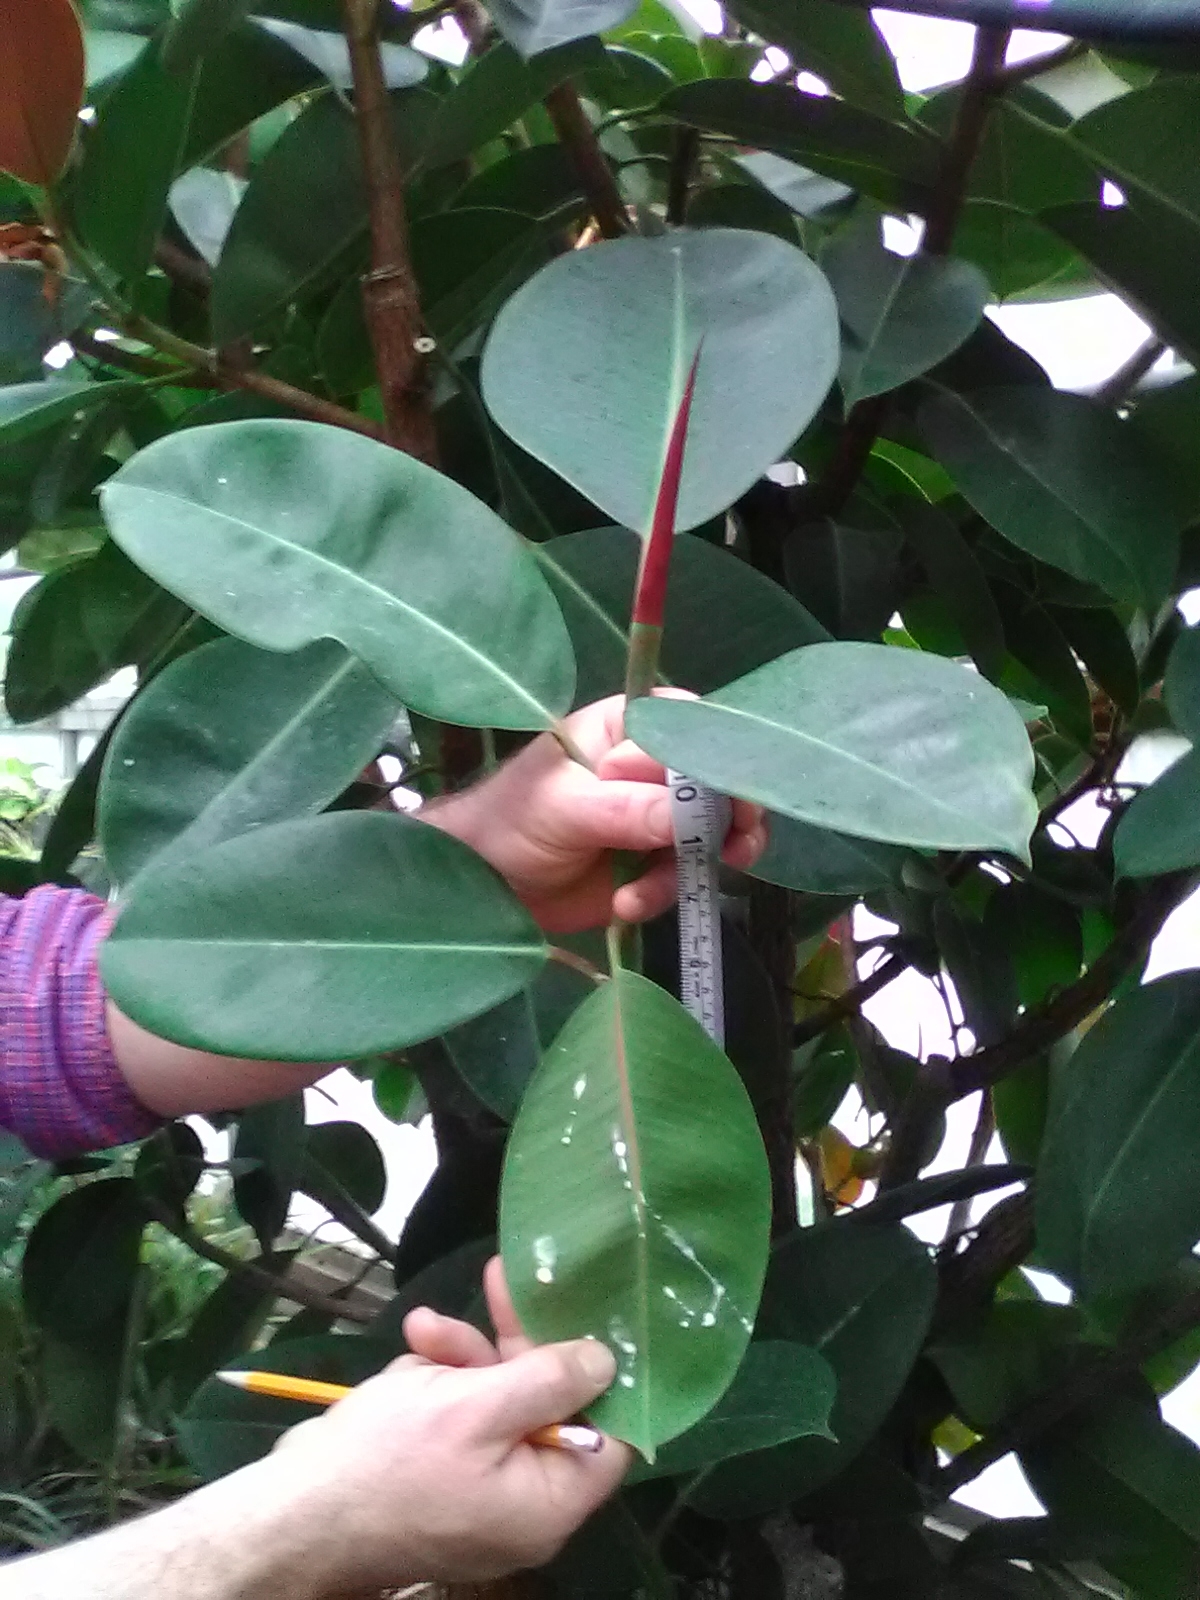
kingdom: Plantae
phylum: Tracheophyta
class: Magnoliopsida
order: Rosales
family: Moraceae
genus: Ficus
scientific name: Ficus elastica
